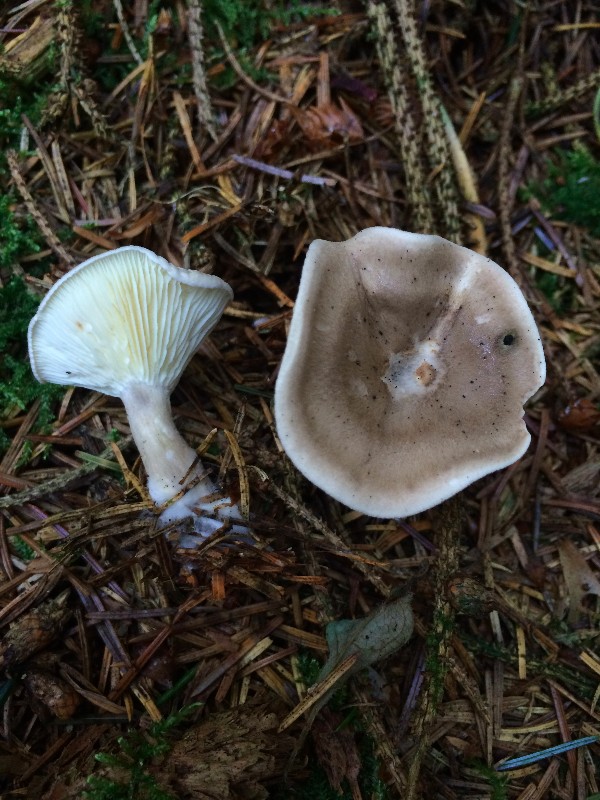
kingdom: Fungi
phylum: Basidiomycota
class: Agaricomycetes
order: Agaricales
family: Hygrophoraceae
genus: Ampulloclitocybe
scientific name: Ampulloclitocybe clavipes
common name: køllefod
